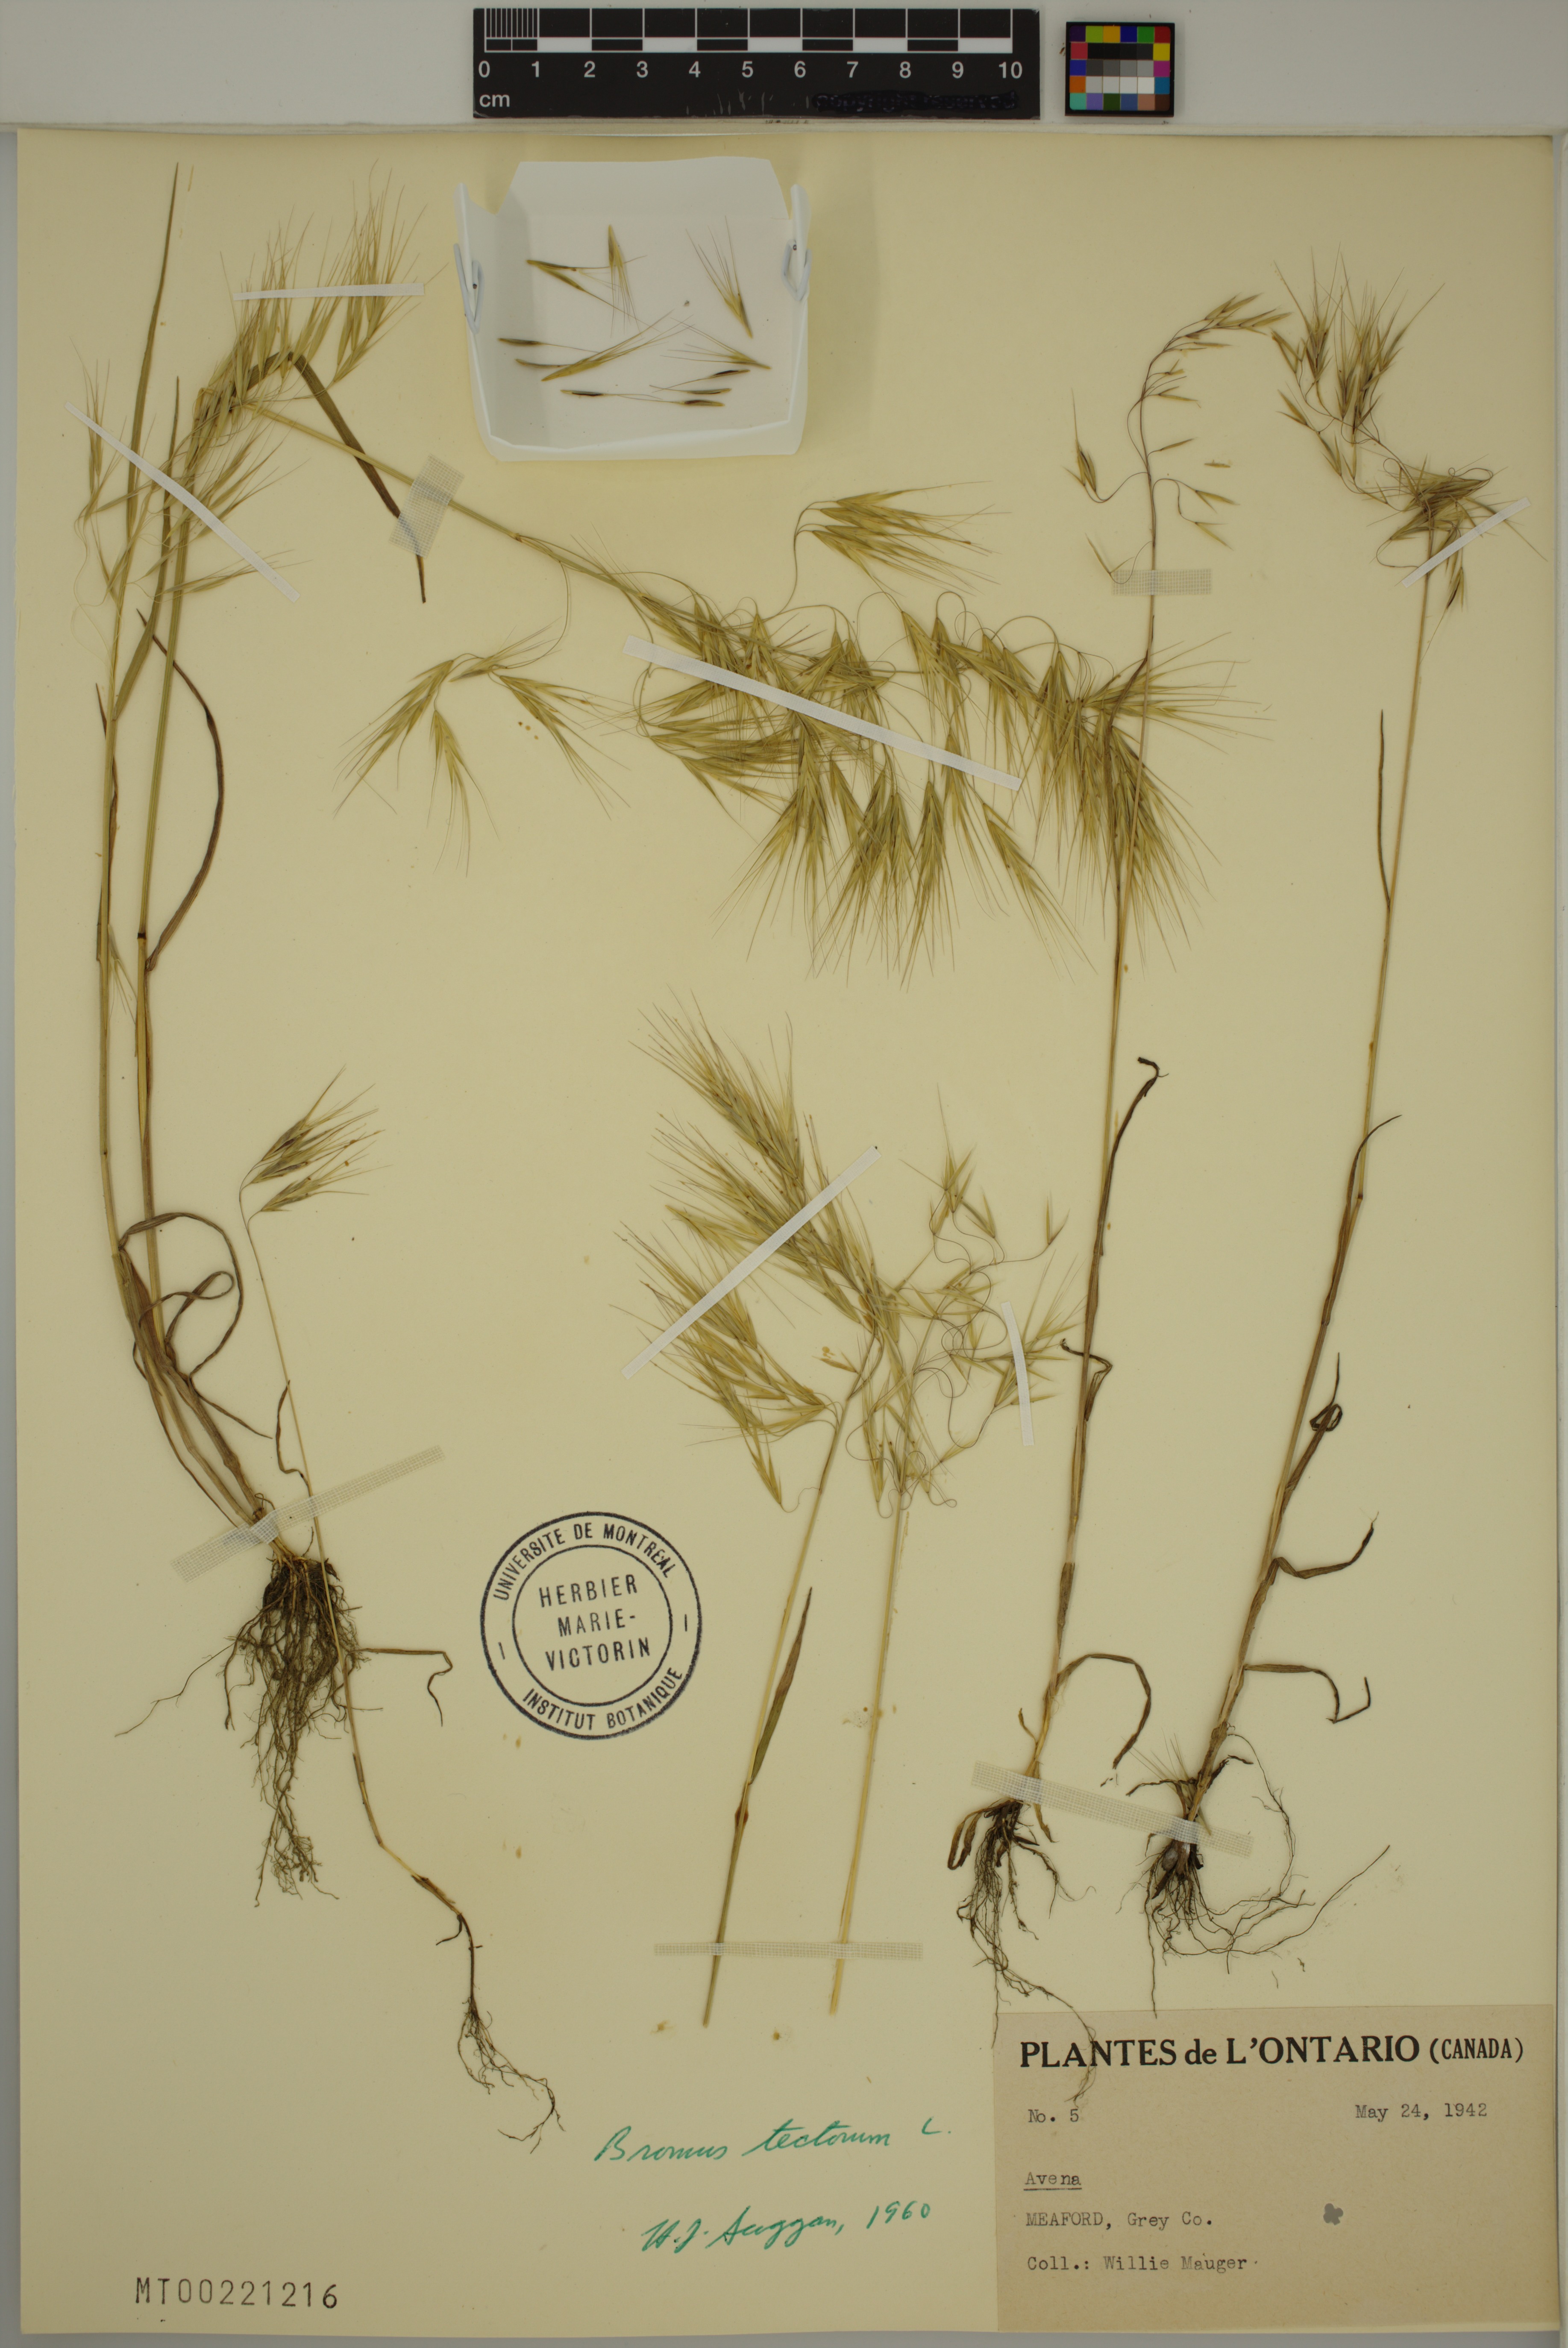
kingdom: Plantae
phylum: Tracheophyta
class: Liliopsida
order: Poales
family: Poaceae
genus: Bromus
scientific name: Bromus tectorum
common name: Cheatgrass
